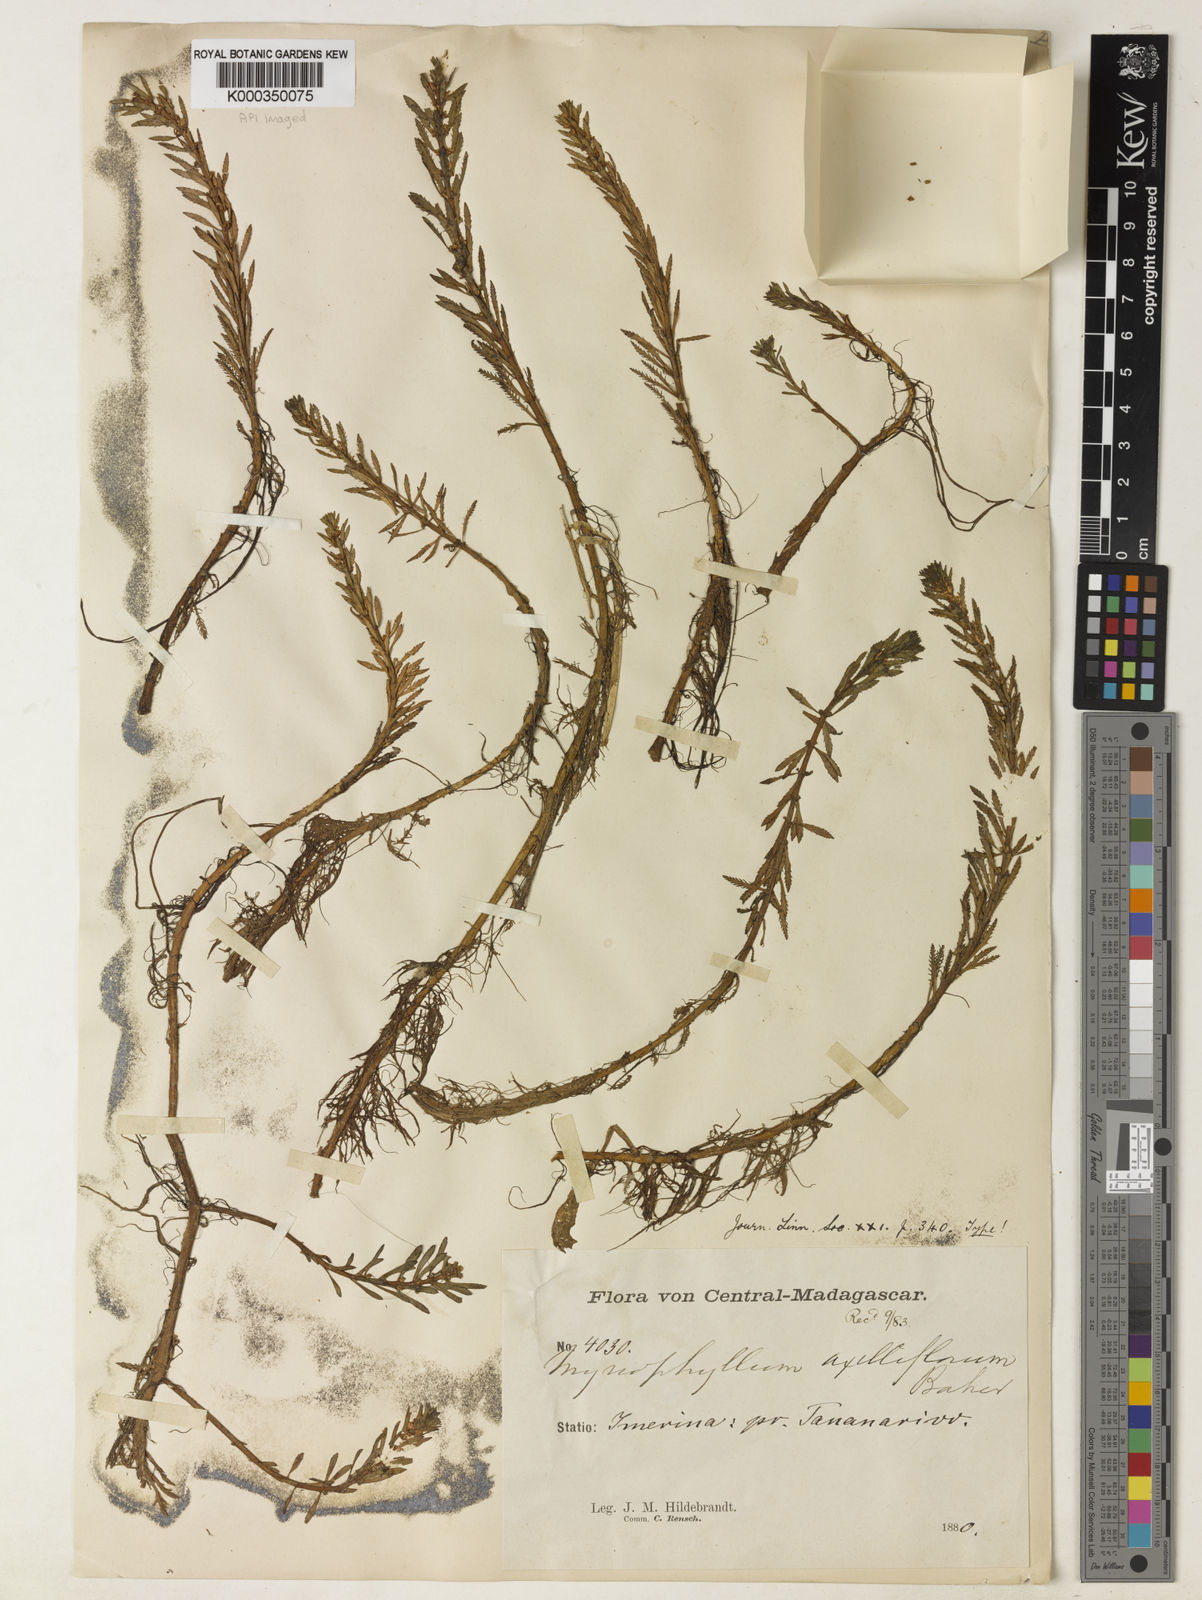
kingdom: Plantae
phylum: Tracheophyta
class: Magnoliopsida
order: Saxifragales
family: Haloragaceae
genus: Myriophyllum
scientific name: Myriophyllum axilliflorum
